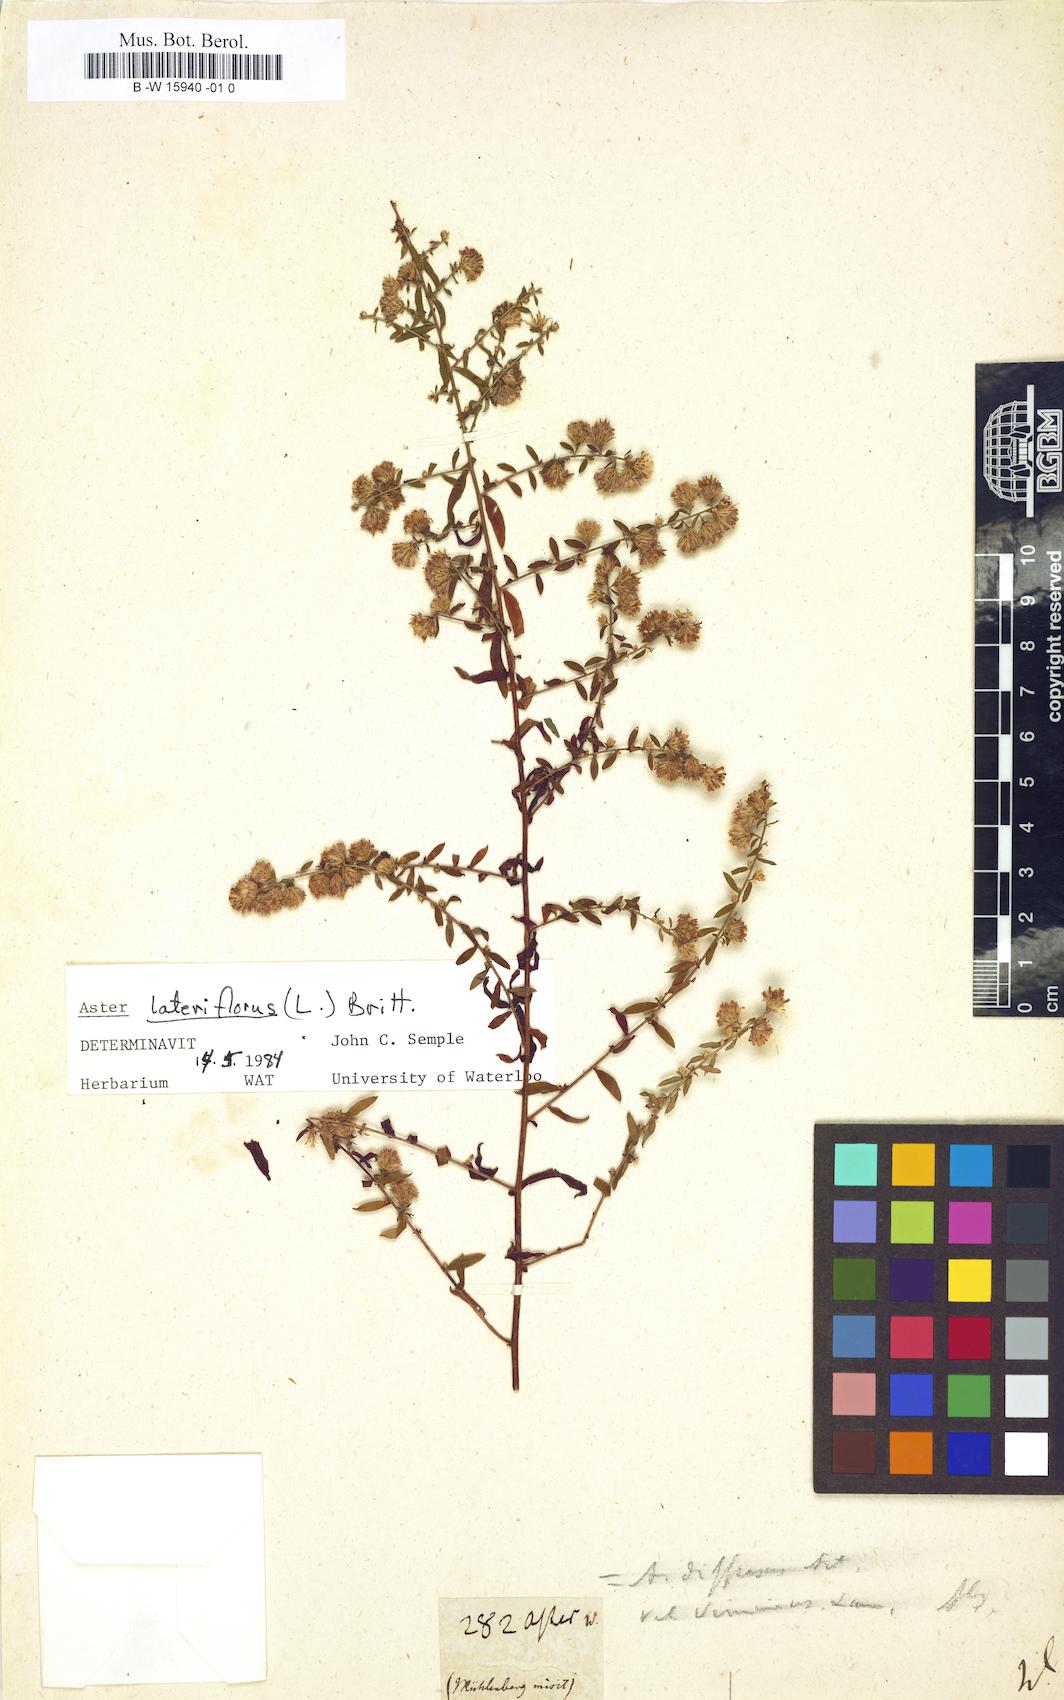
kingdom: Plantae
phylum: Tracheophyta
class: Magnoliopsida
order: Asterales
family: Asteraceae
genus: Aster
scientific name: Aster
